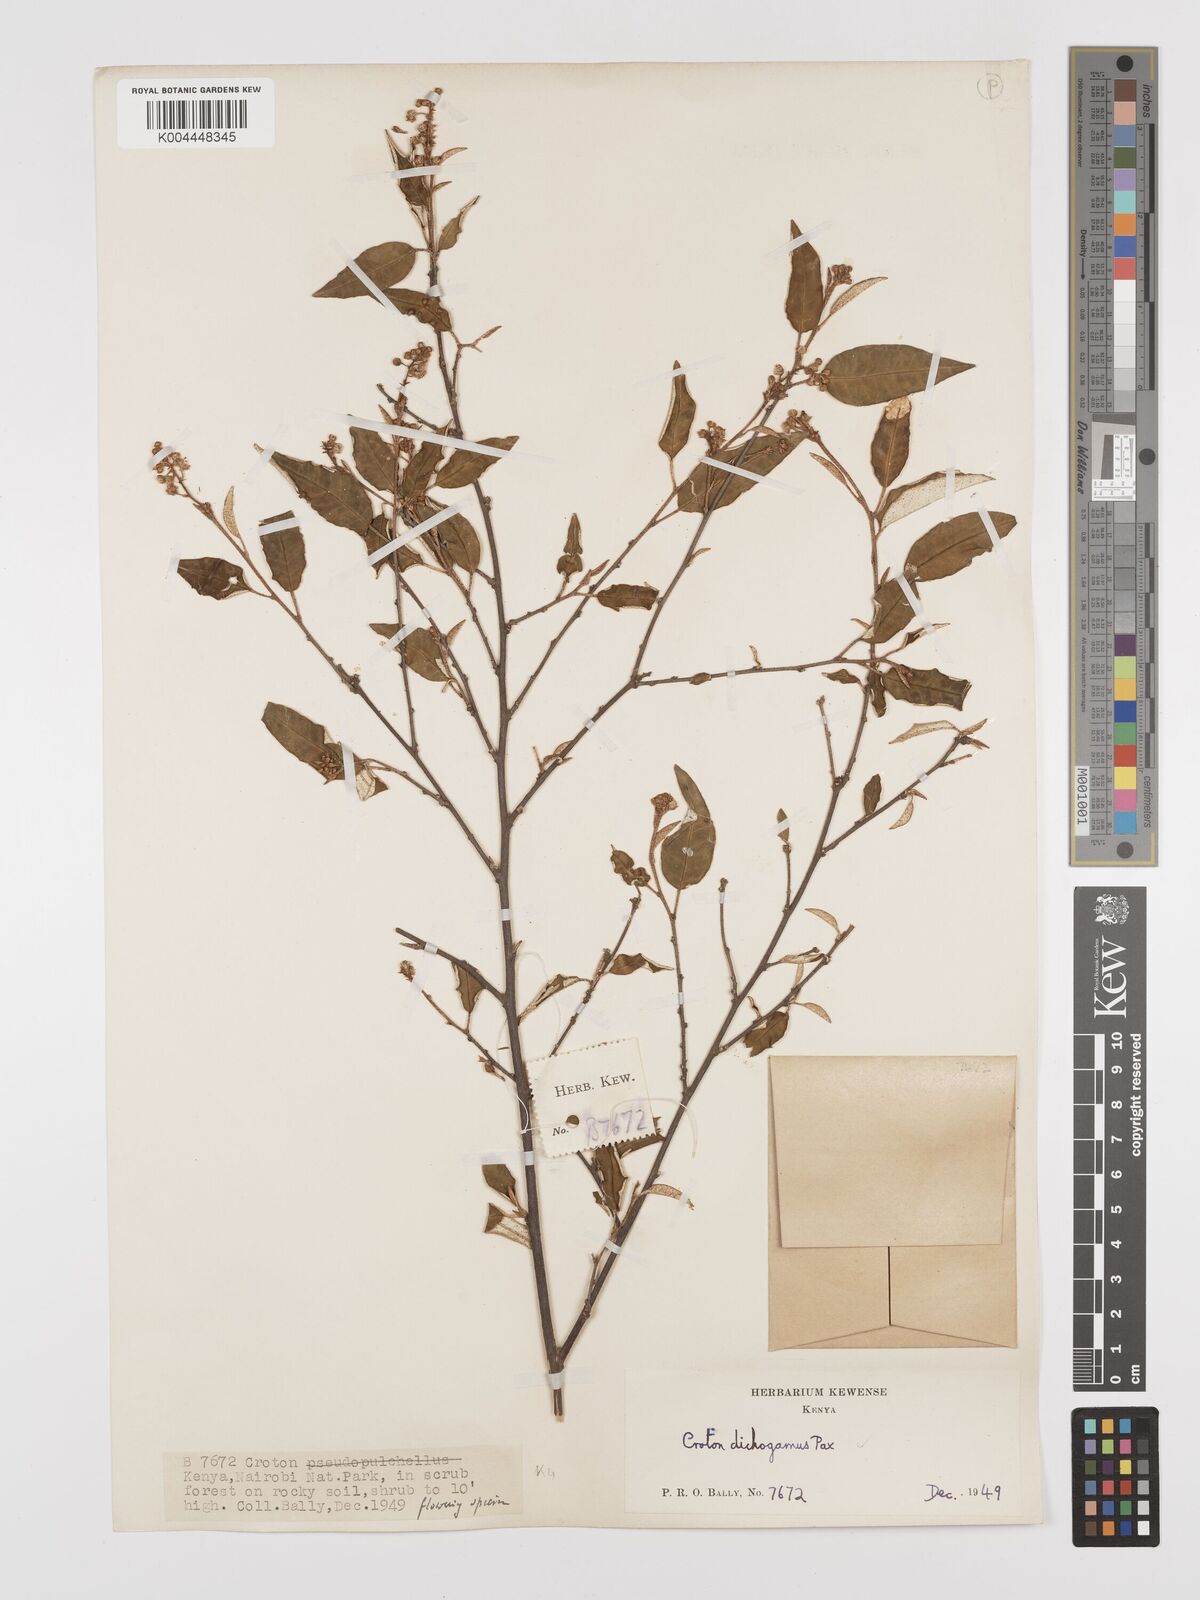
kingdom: Plantae
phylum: Tracheophyta
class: Magnoliopsida
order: Malpighiales
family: Euphorbiaceae
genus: Croton
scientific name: Croton dichogamus
